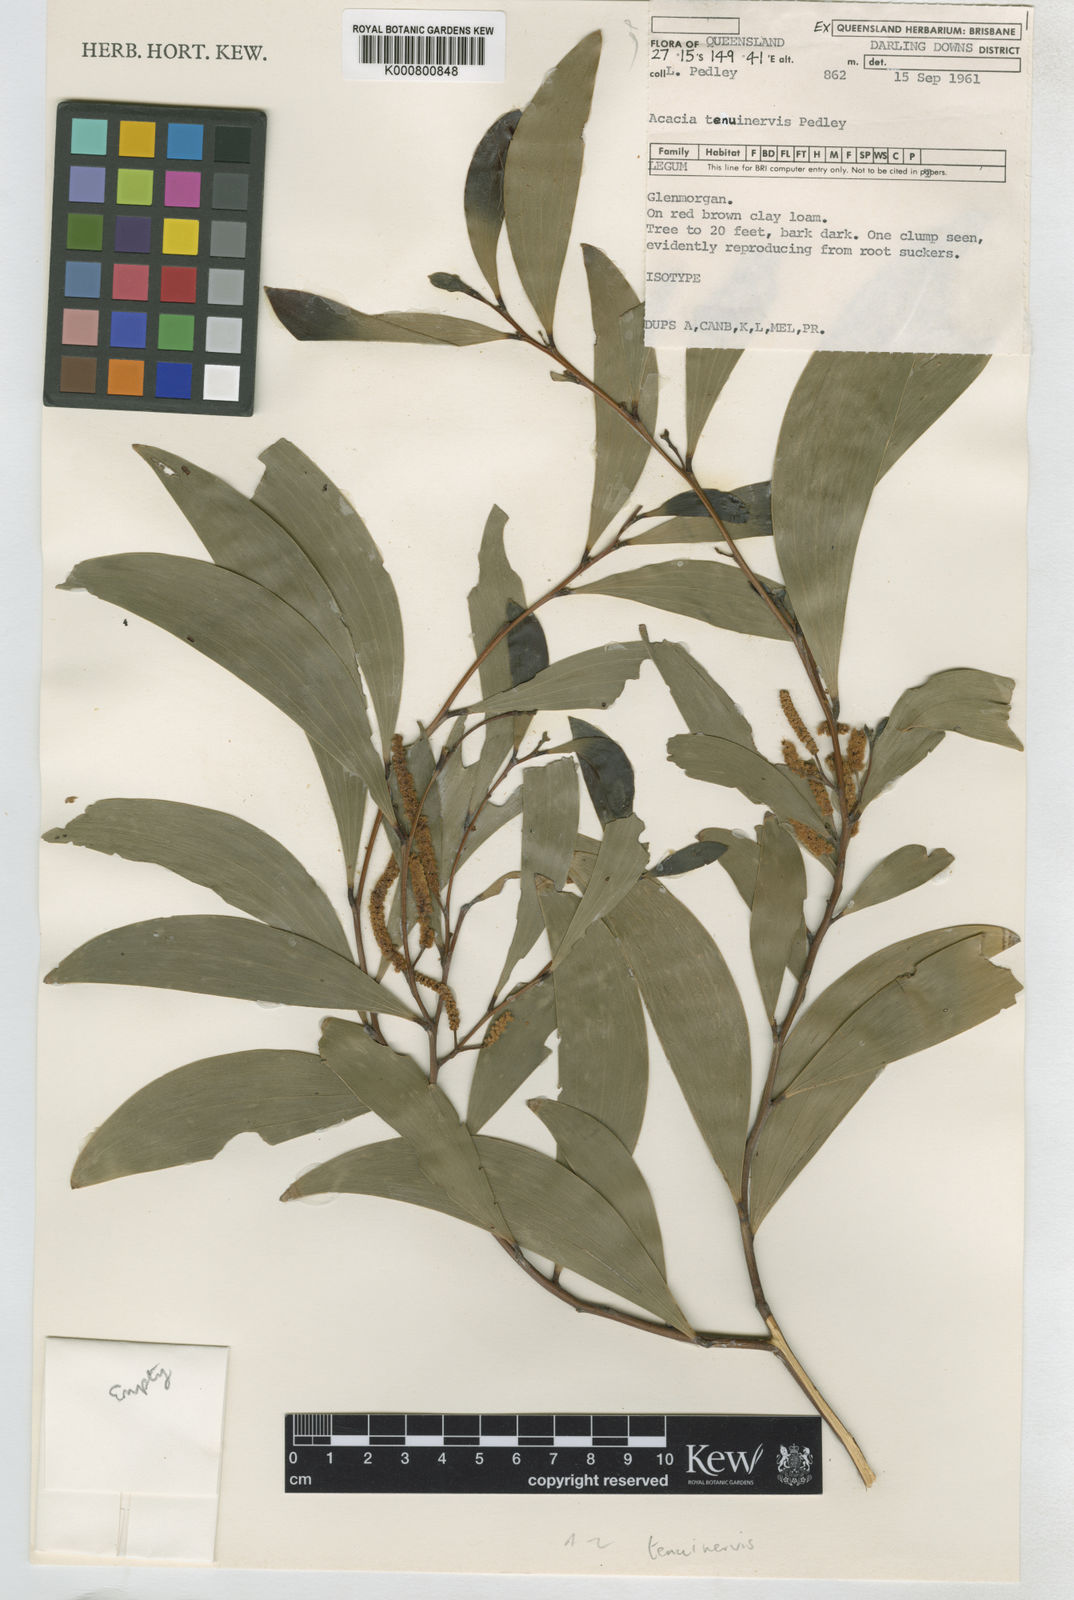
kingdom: Plantae
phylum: Tracheophyta
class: Magnoliopsida
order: Fabales
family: Fabaceae
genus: Acacia
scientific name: Acacia tenuinervis
